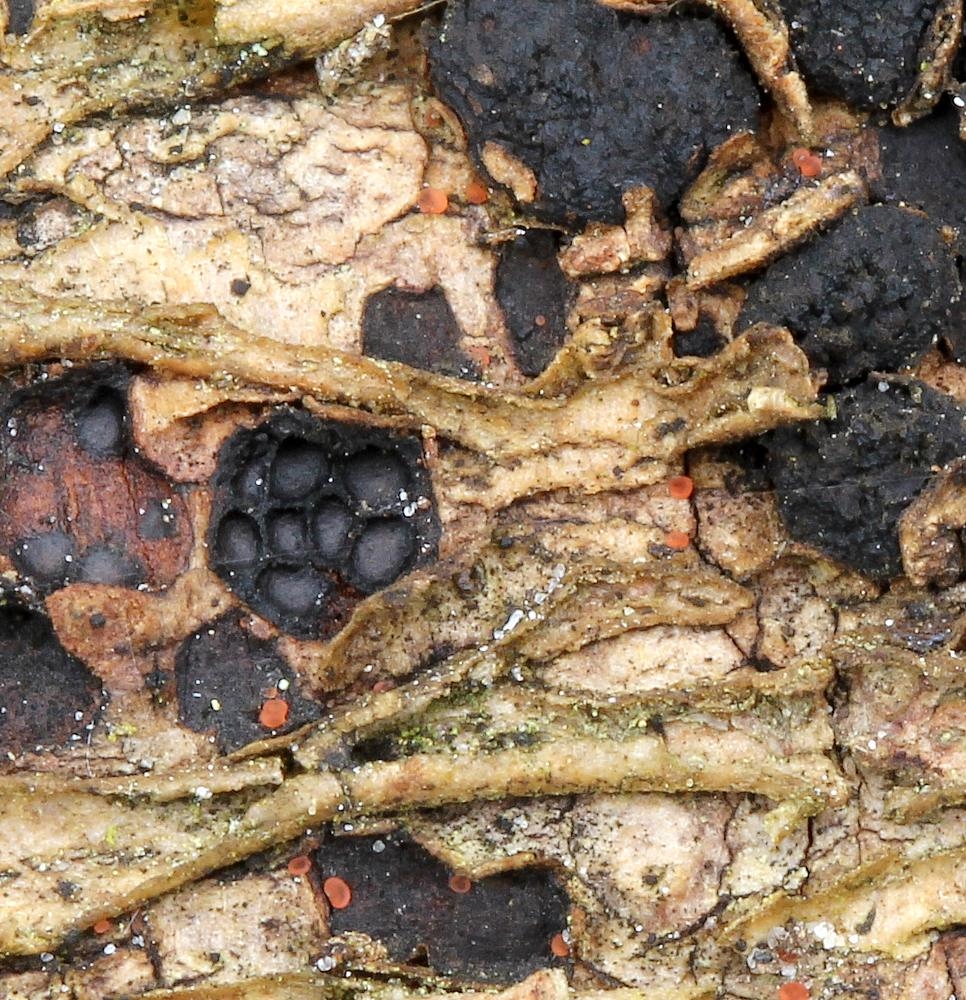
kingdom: Fungi
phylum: Ascomycota
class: Orbiliomycetes
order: Orbiliales
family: Orbiliaceae
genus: Orbilia
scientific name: Orbilia
